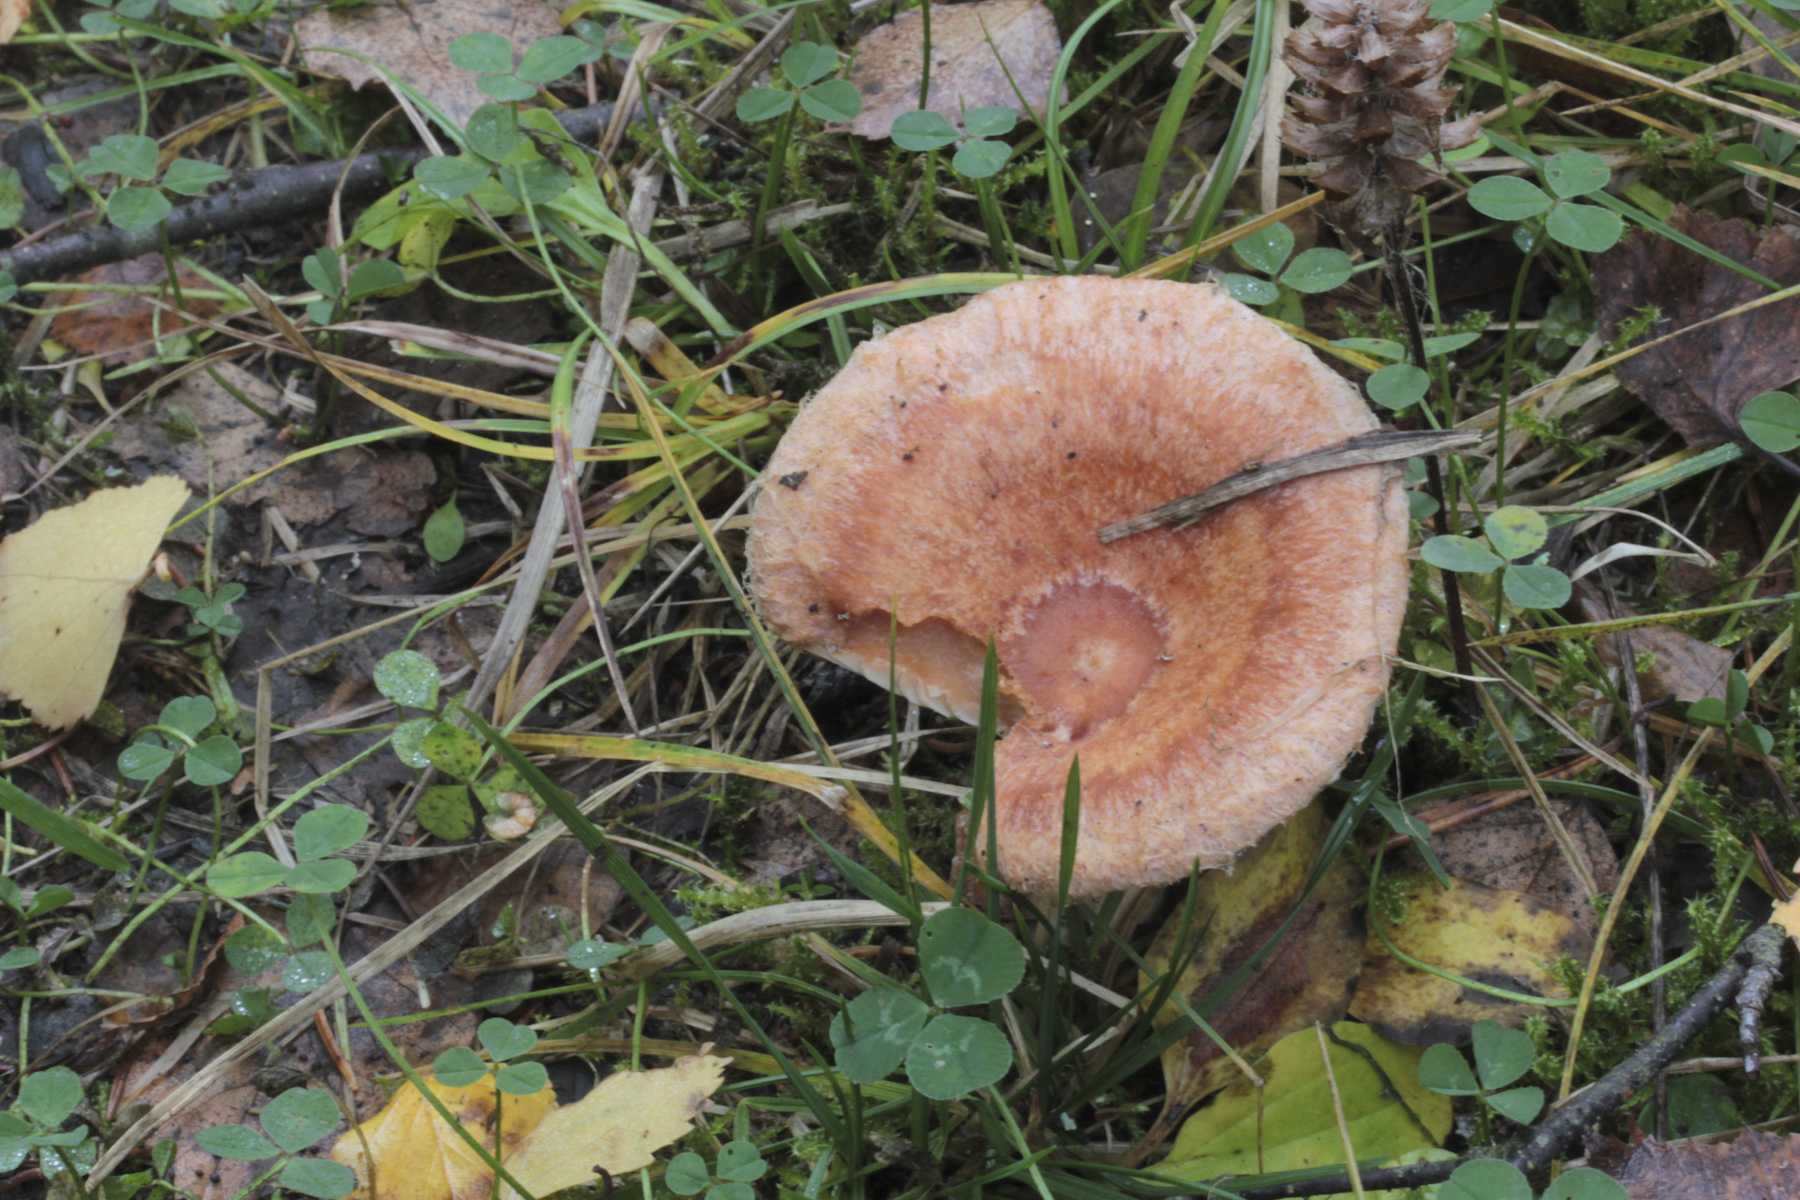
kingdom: Fungi
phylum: Basidiomycota
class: Agaricomycetes
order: Russulales
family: Russulaceae
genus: Lactarius
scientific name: Lactarius torminosus
